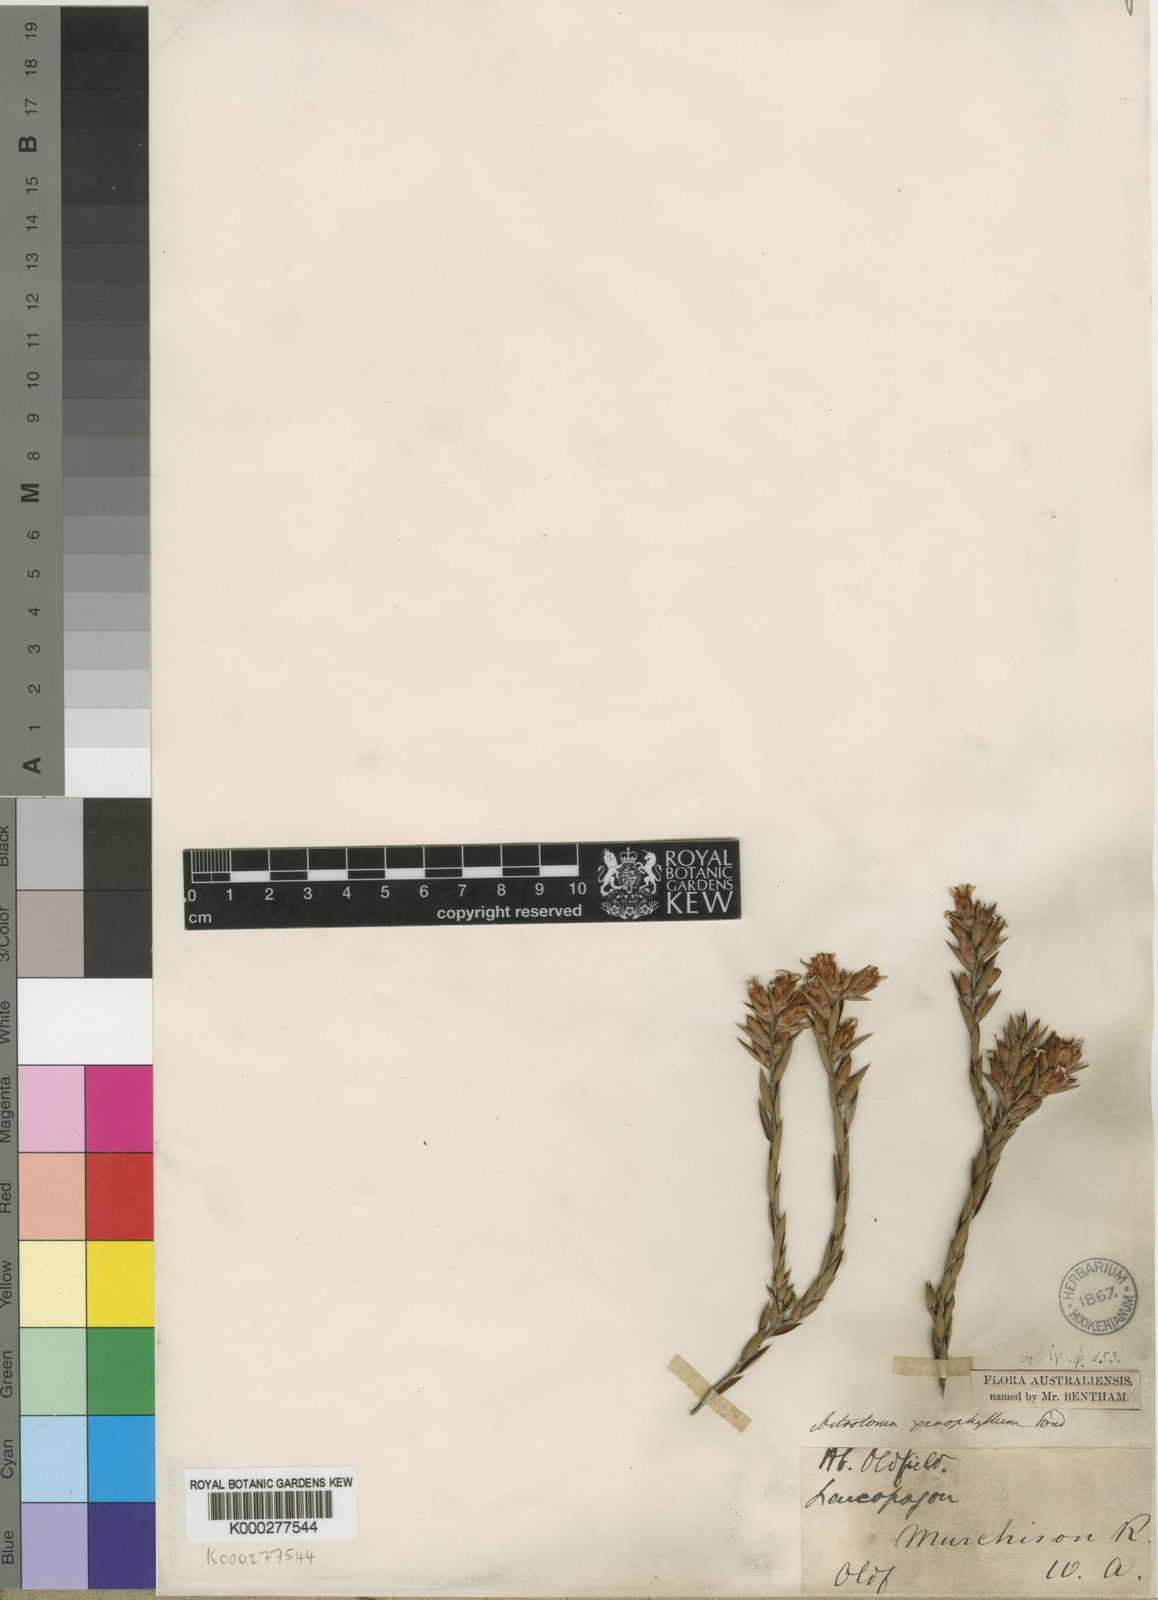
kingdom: Plantae
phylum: Tracheophyta
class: Magnoliopsida
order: Ericales
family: Ericaceae
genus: Styphelia
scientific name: Styphelia xerophylla
